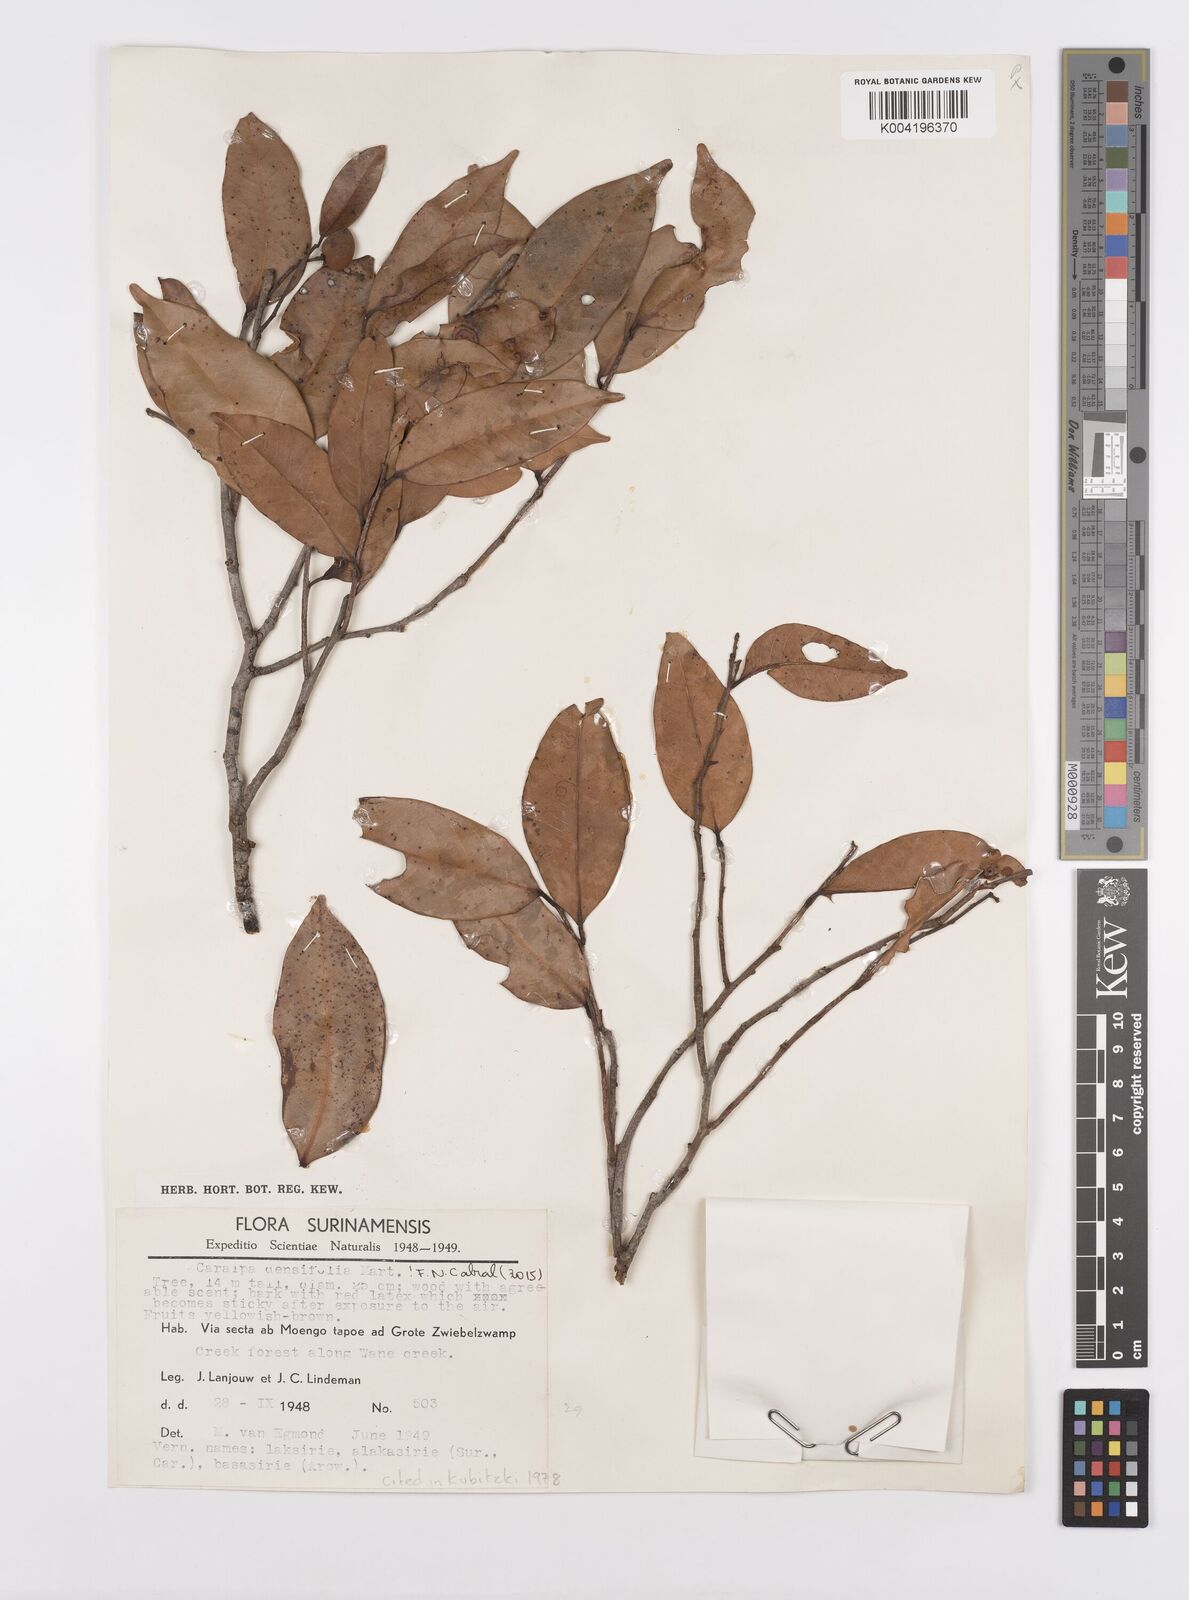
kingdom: Plantae
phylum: Tracheophyta
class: Magnoliopsida
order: Malpighiales
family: Calophyllaceae
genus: Caraipa
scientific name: Caraipa densifolia
